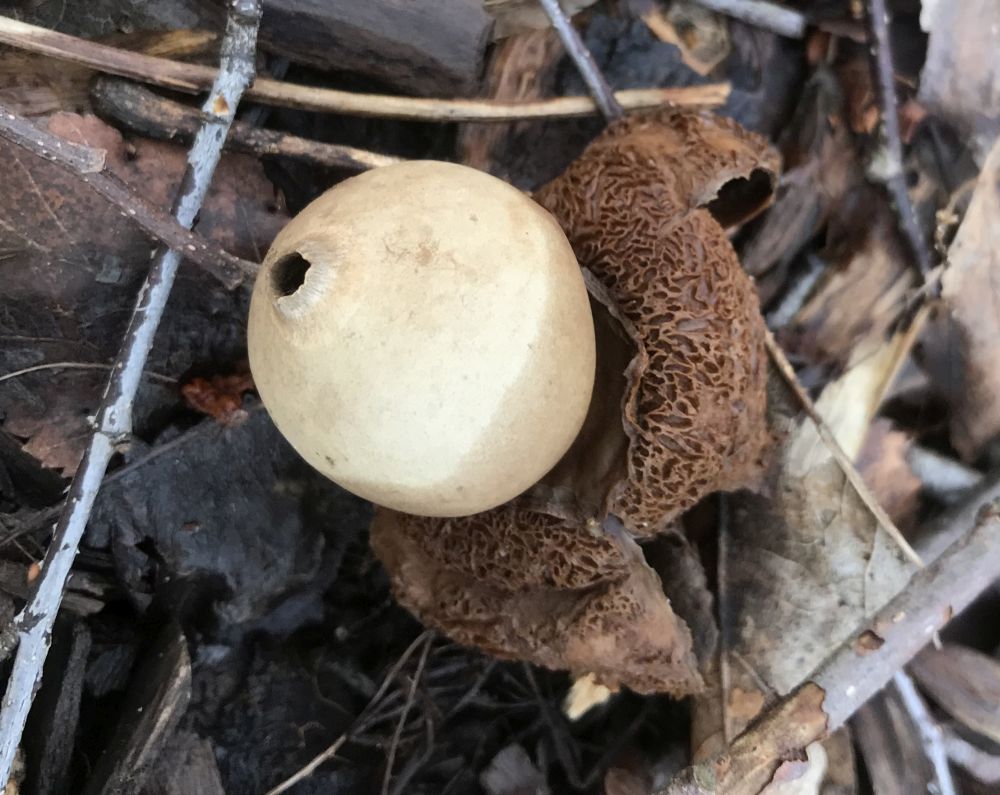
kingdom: Fungi
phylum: Basidiomycota
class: Agaricomycetes
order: Geastrales
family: Geastraceae
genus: Geastrum
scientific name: Geastrum michelianum
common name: kødet stjernebold
